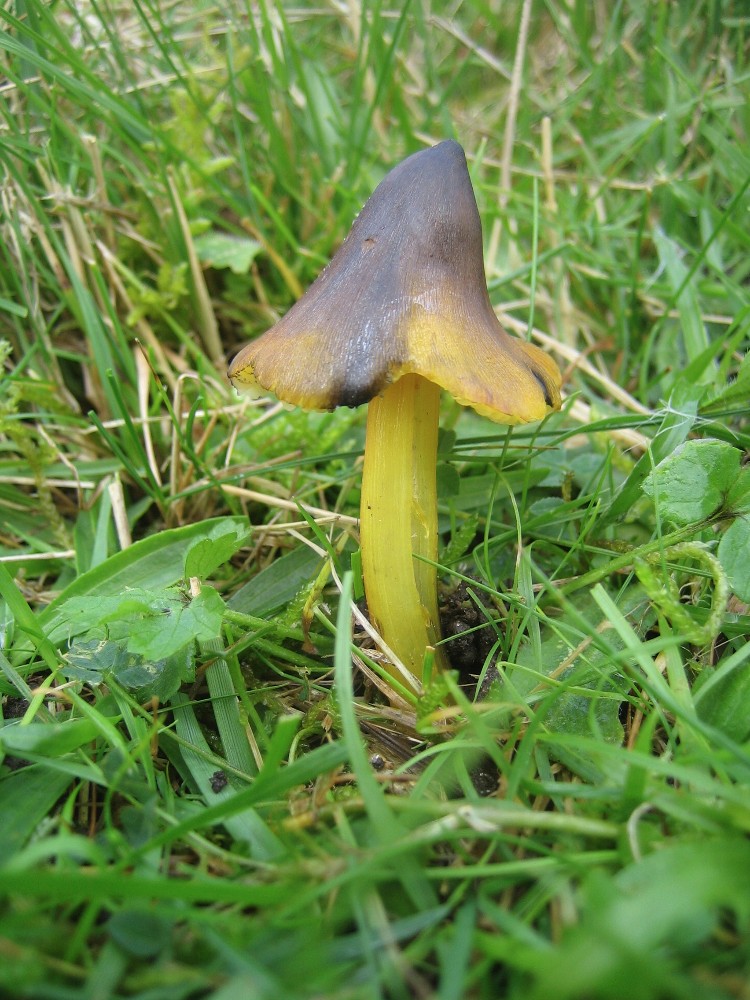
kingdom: Fungi
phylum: Basidiomycota
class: Agaricomycetes
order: Agaricales
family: Hygrophoraceae
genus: Hygrocybe
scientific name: Hygrocybe conica
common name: kegle-vokshat
